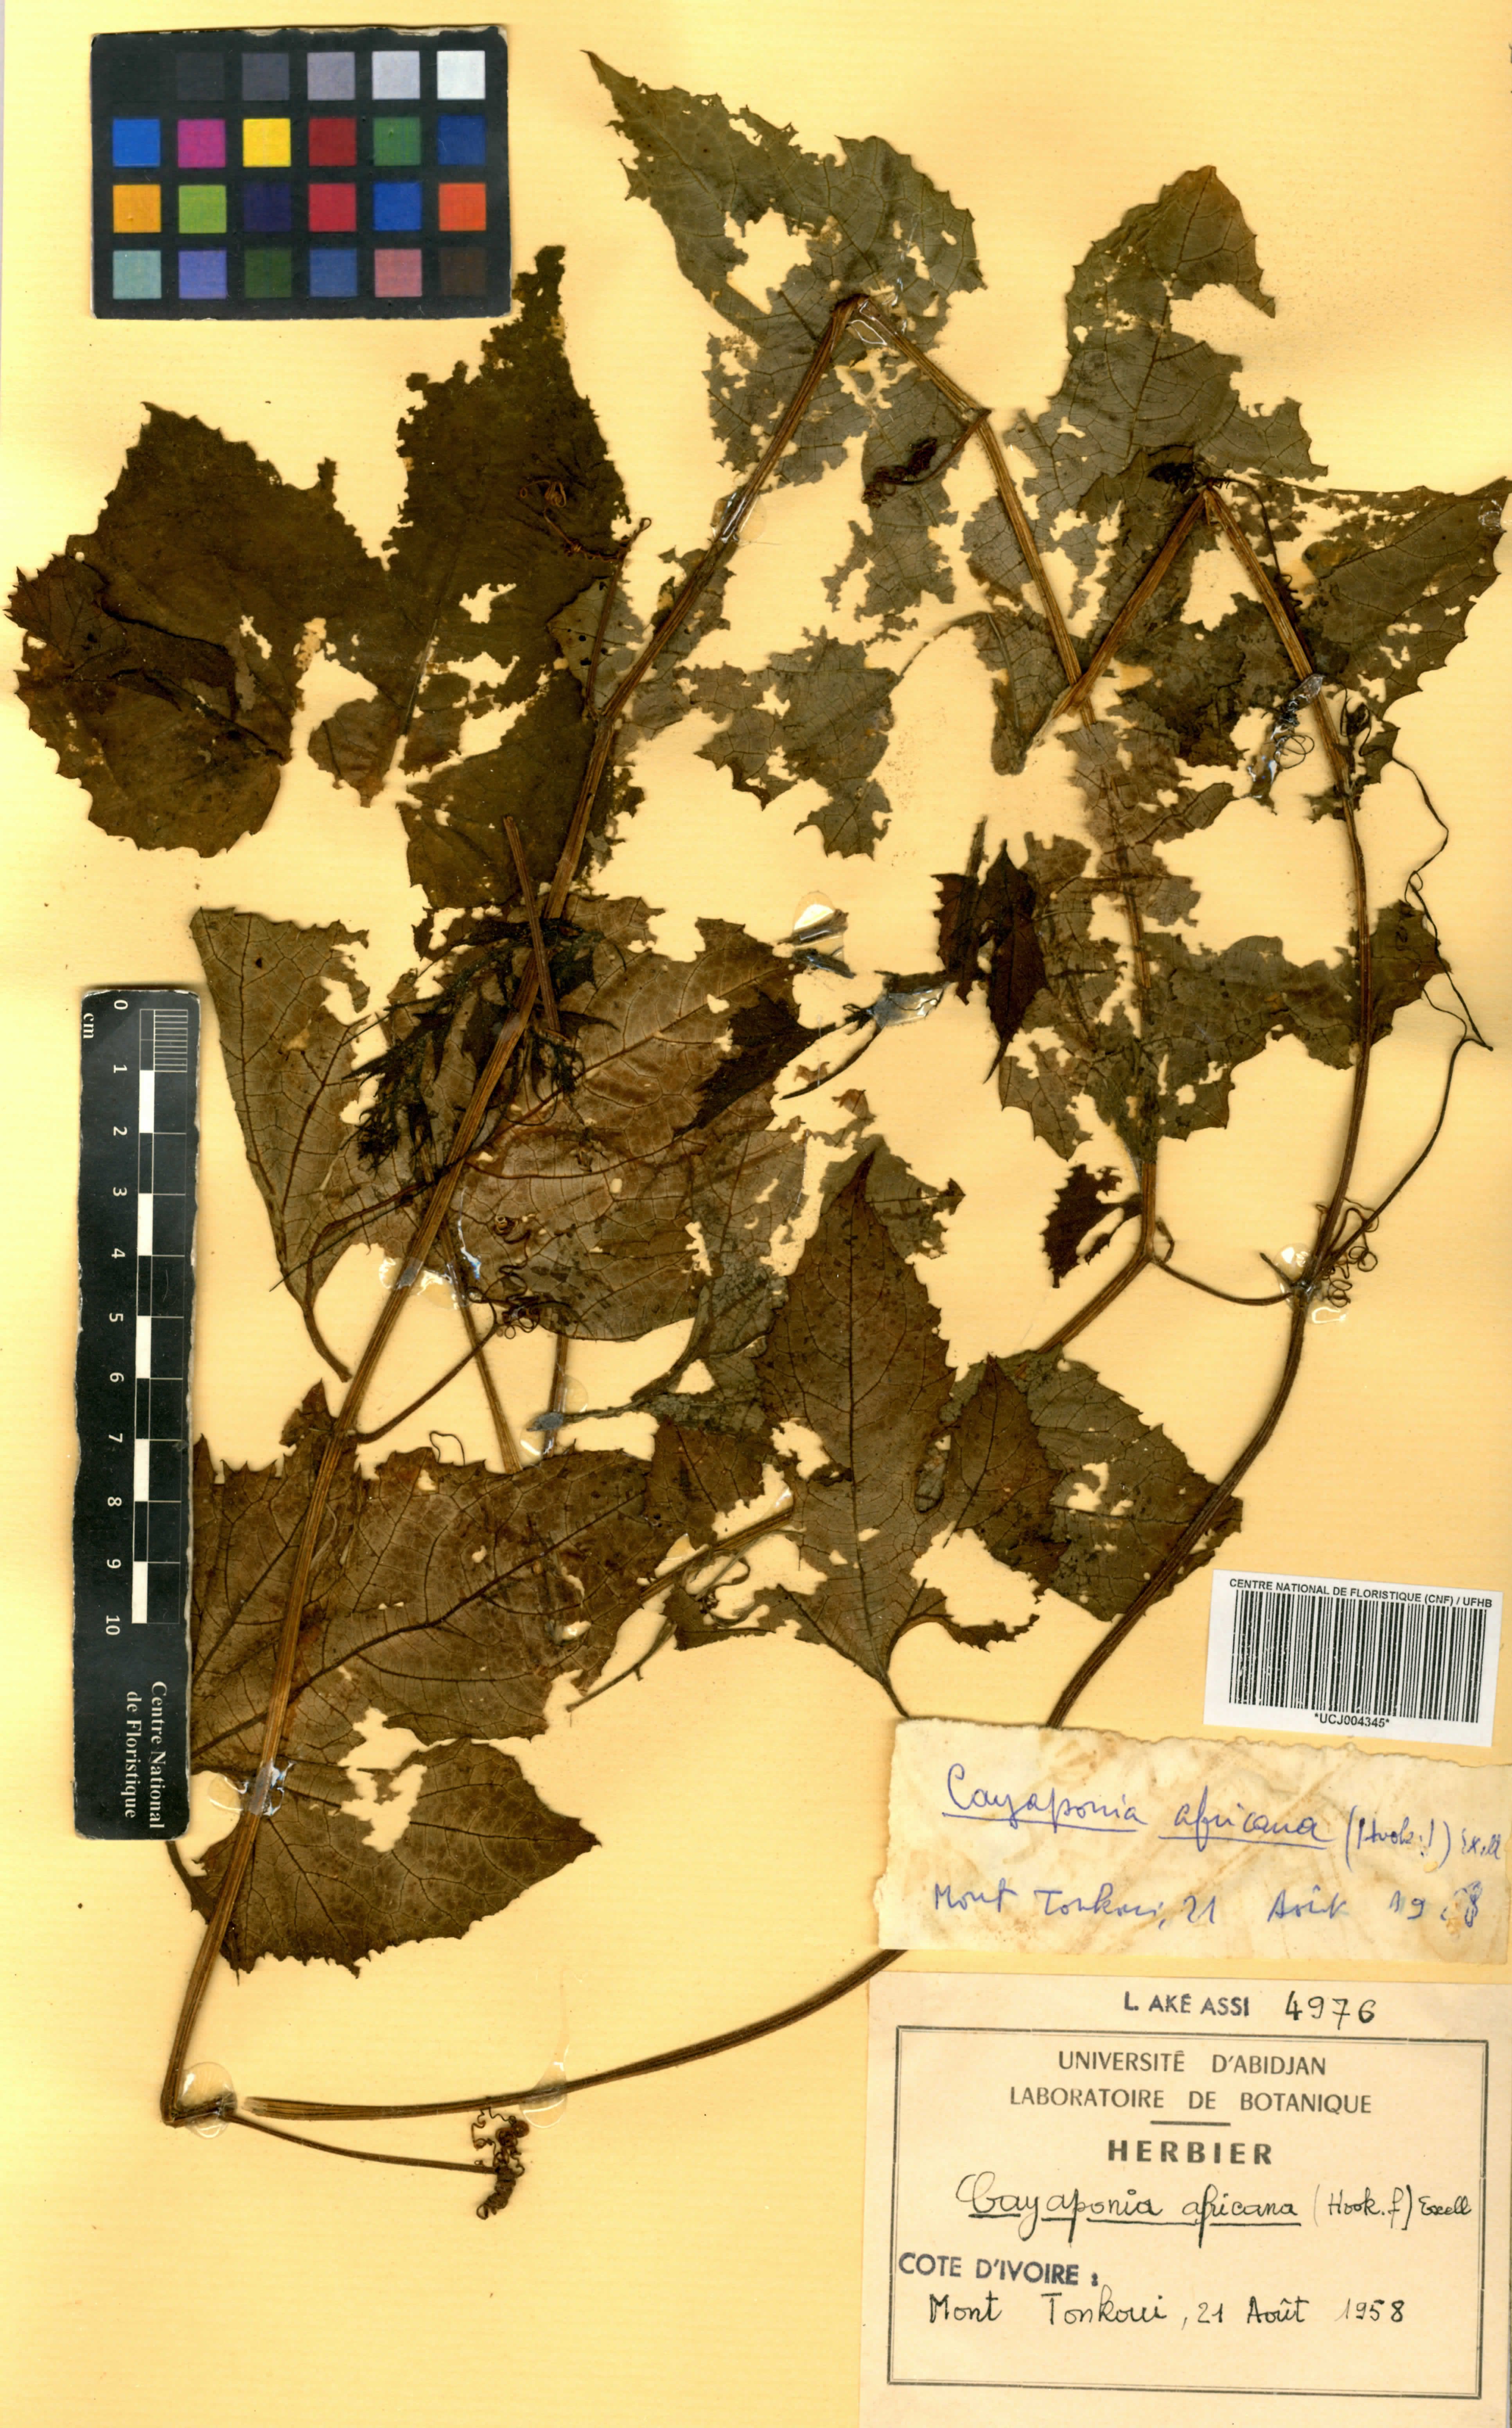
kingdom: Plantae
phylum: Tracheophyta
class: Magnoliopsida
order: Cucurbitales
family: Cucurbitaceae
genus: Cayaponia
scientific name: Cayaponia africana
